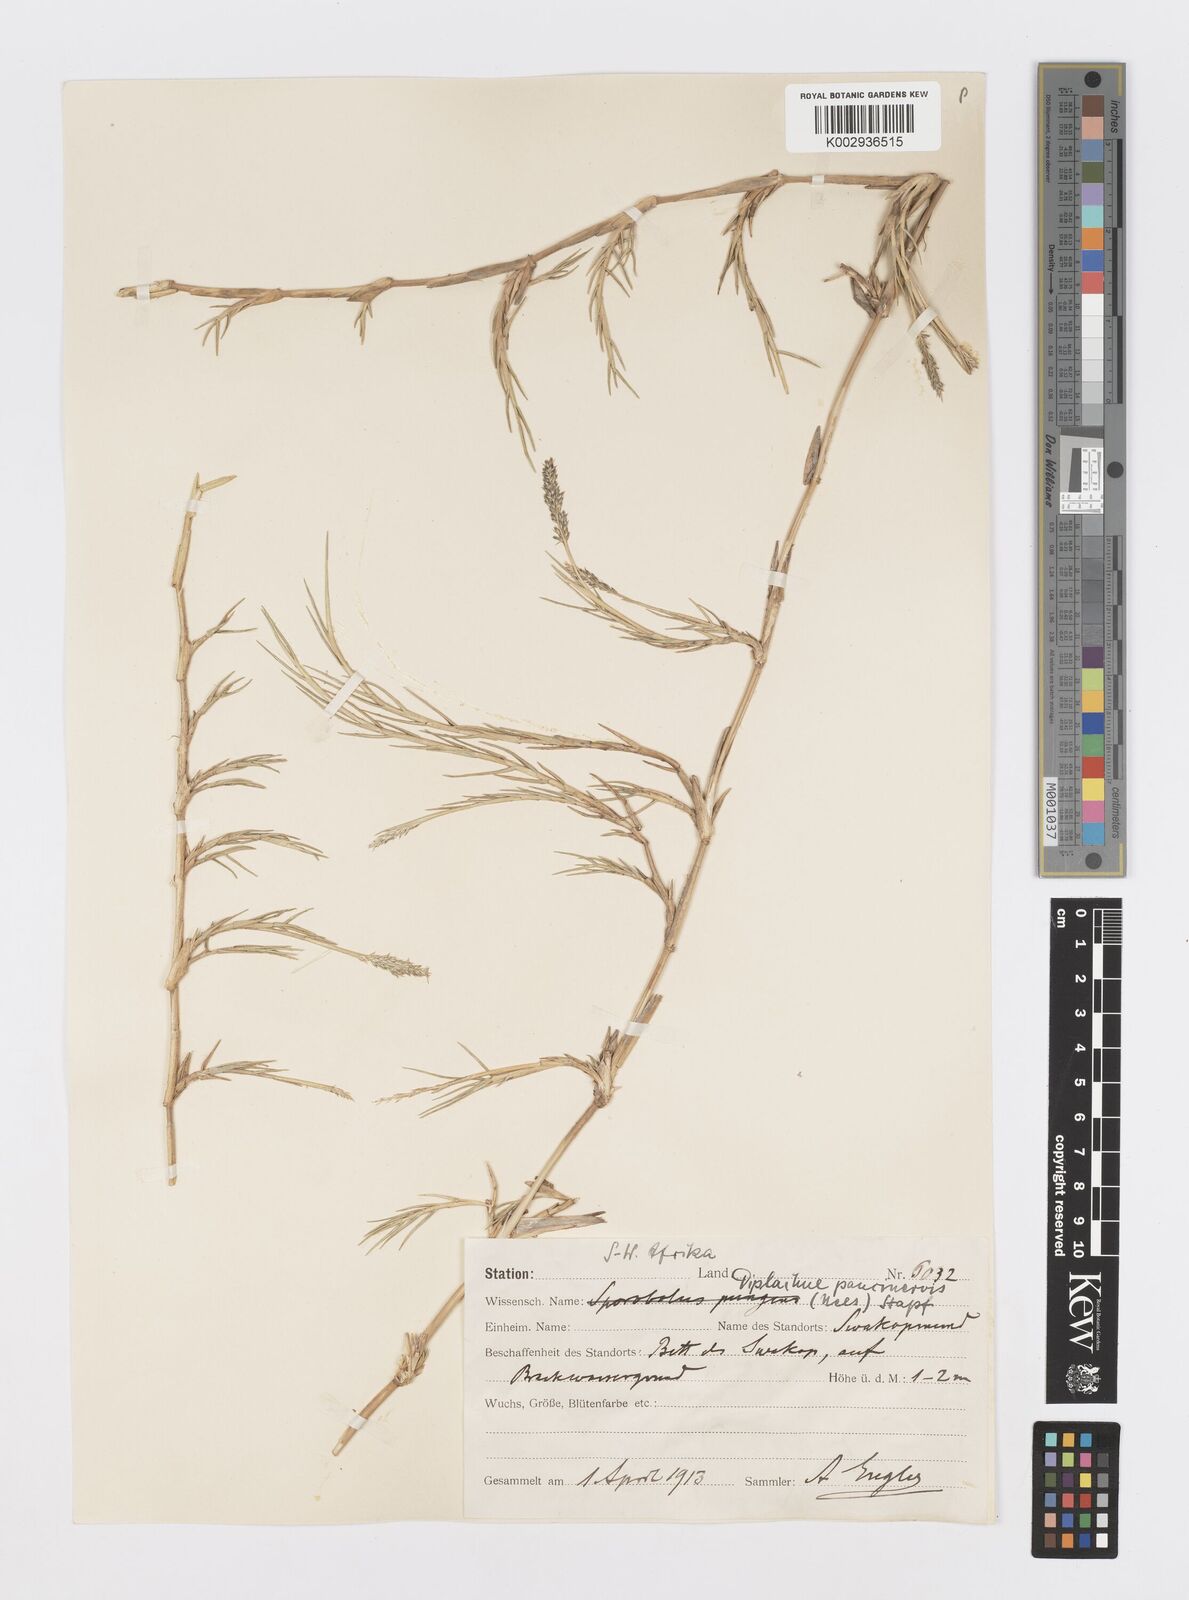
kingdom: Plantae
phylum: Tracheophyta
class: Liliopsida
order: Poales
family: Poaceae
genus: Sporobolus
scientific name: Sporobolus virginicus
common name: Beach dropseed
